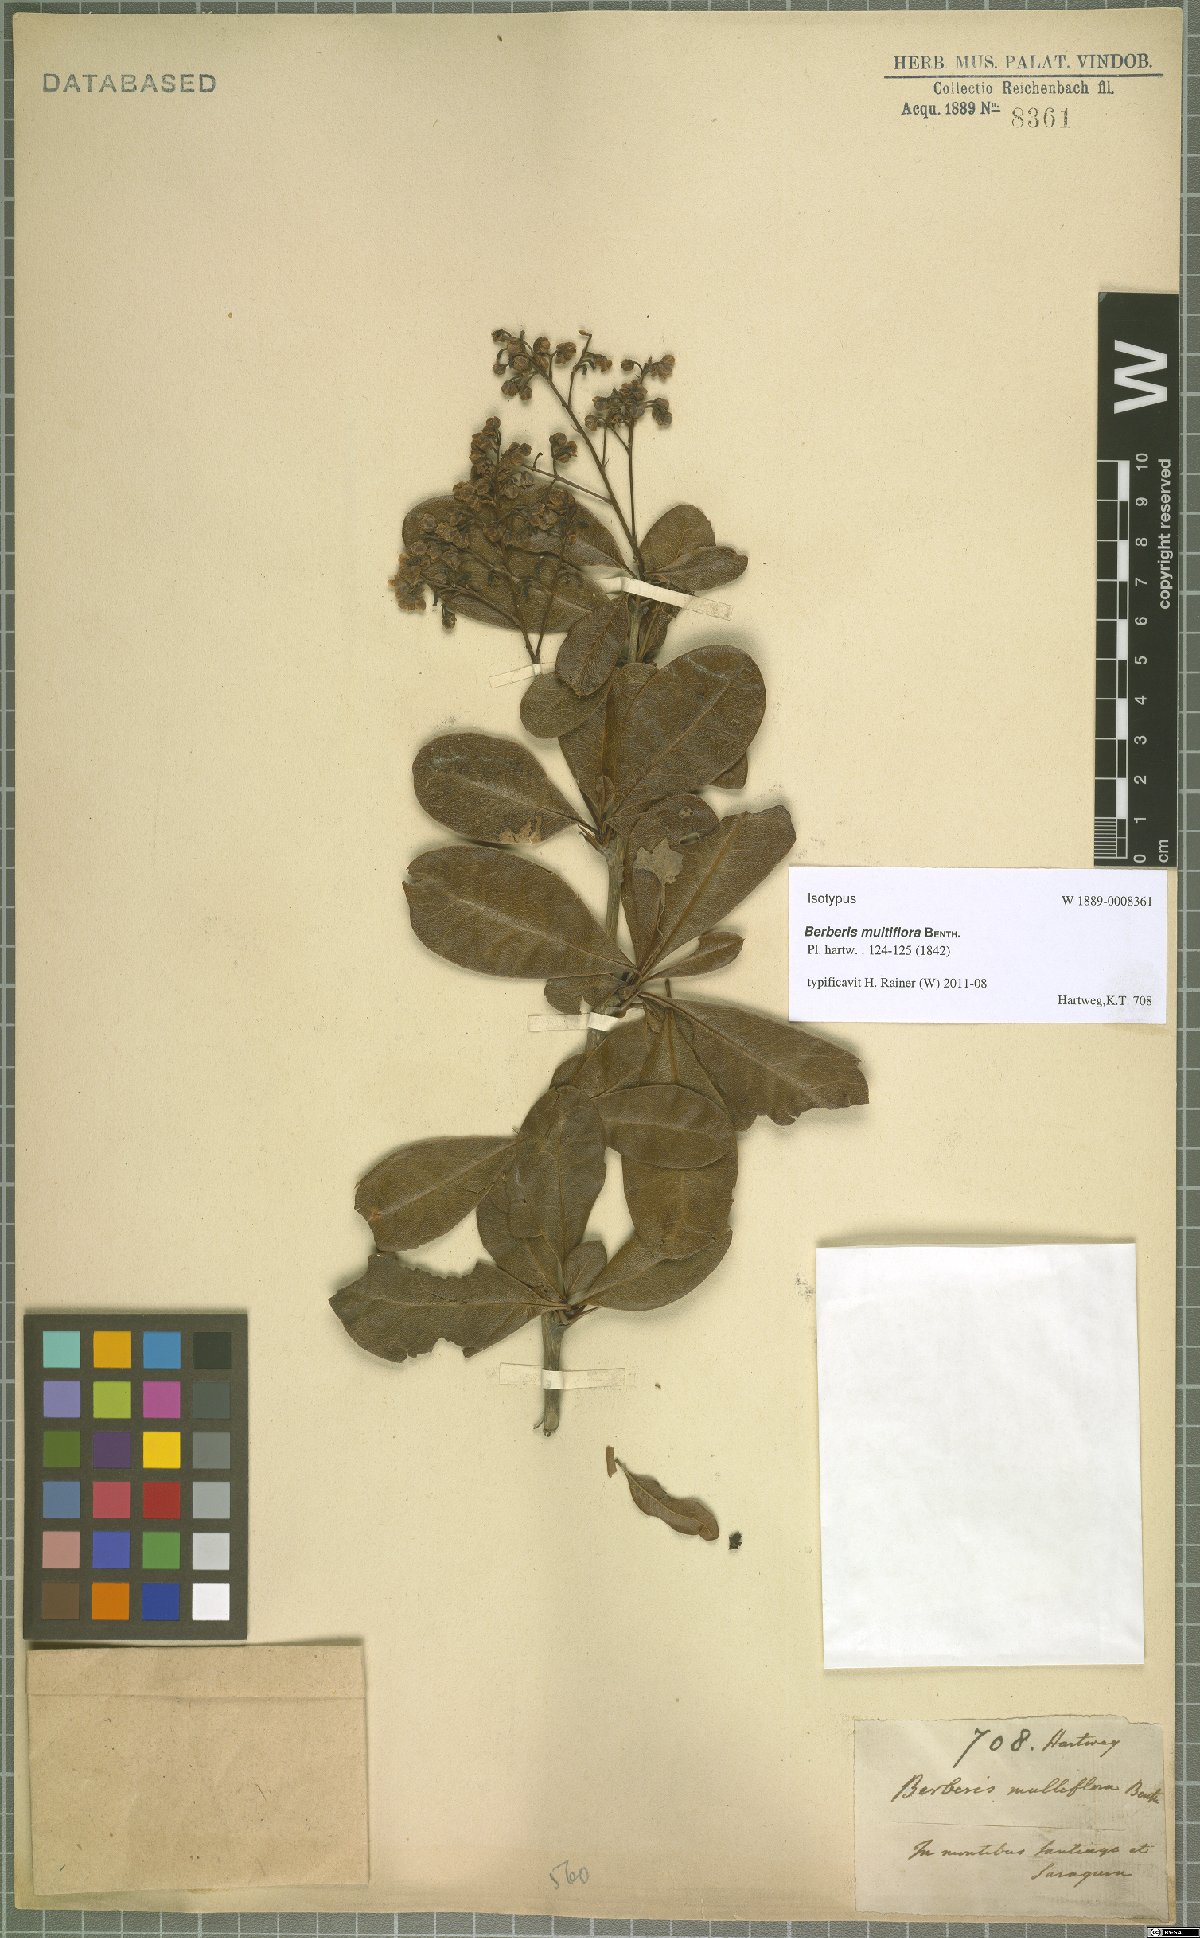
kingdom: Plantae
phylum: Tracheophyta
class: Magnoliopsida
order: Ranunculales
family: Berberidaceae
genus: Berberis
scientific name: Berberis multiflora
